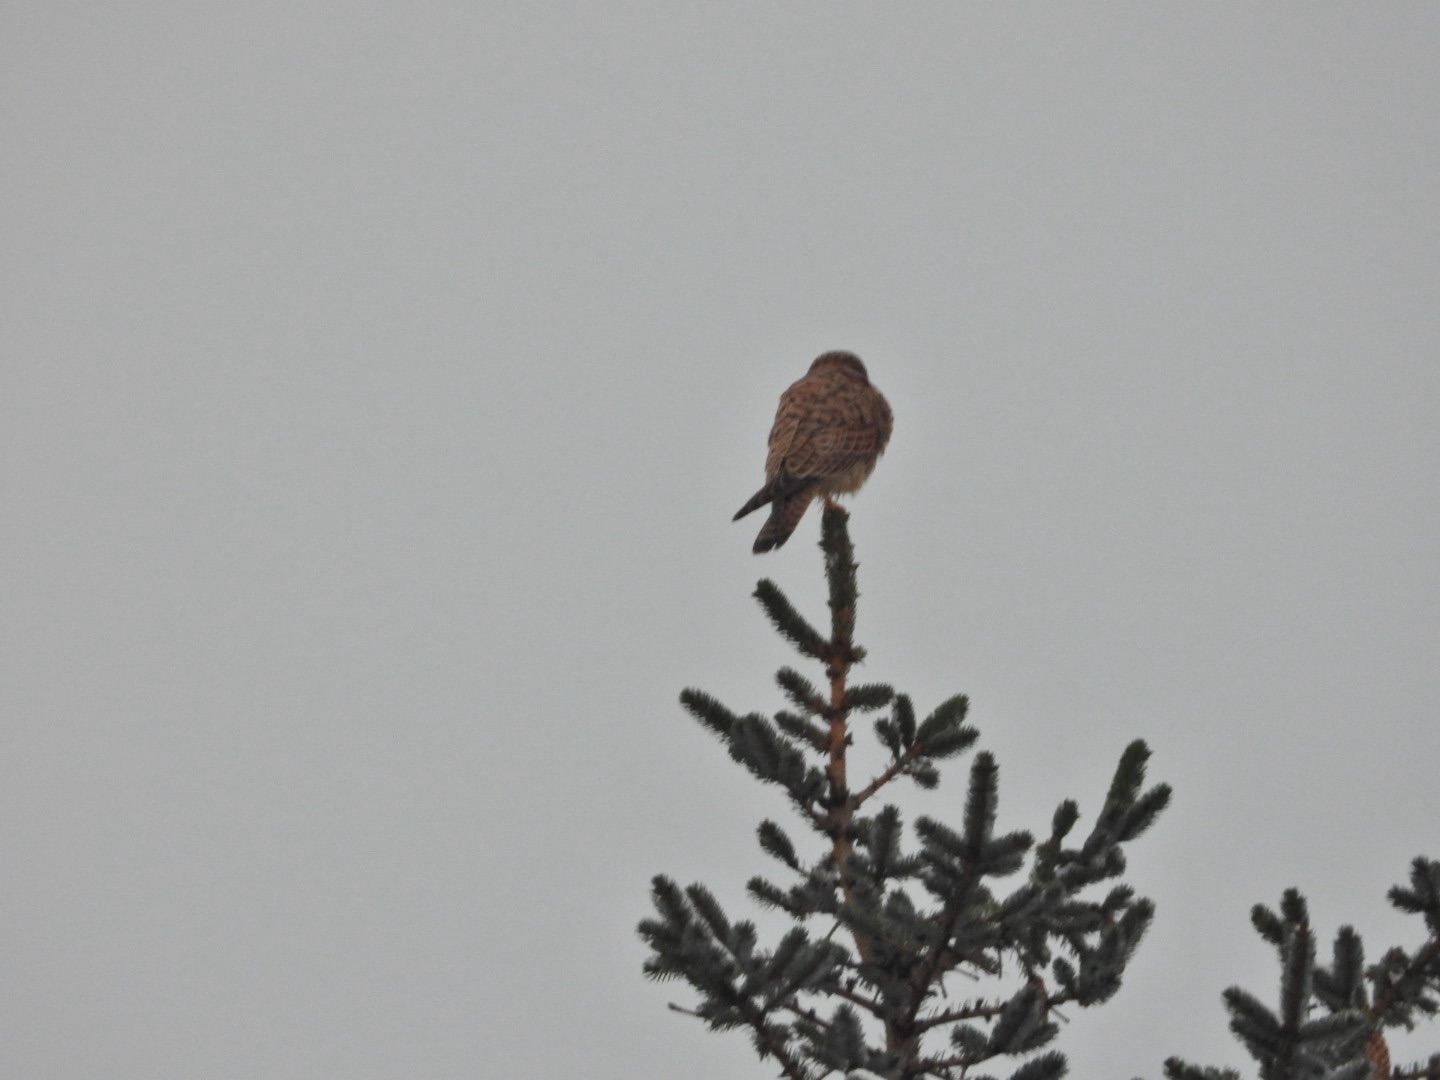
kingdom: Animalia
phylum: Chordata
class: Aves
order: Falconiformes
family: Falconidae
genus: Falco
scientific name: Falco tinnunculus
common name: Tårnfalk
